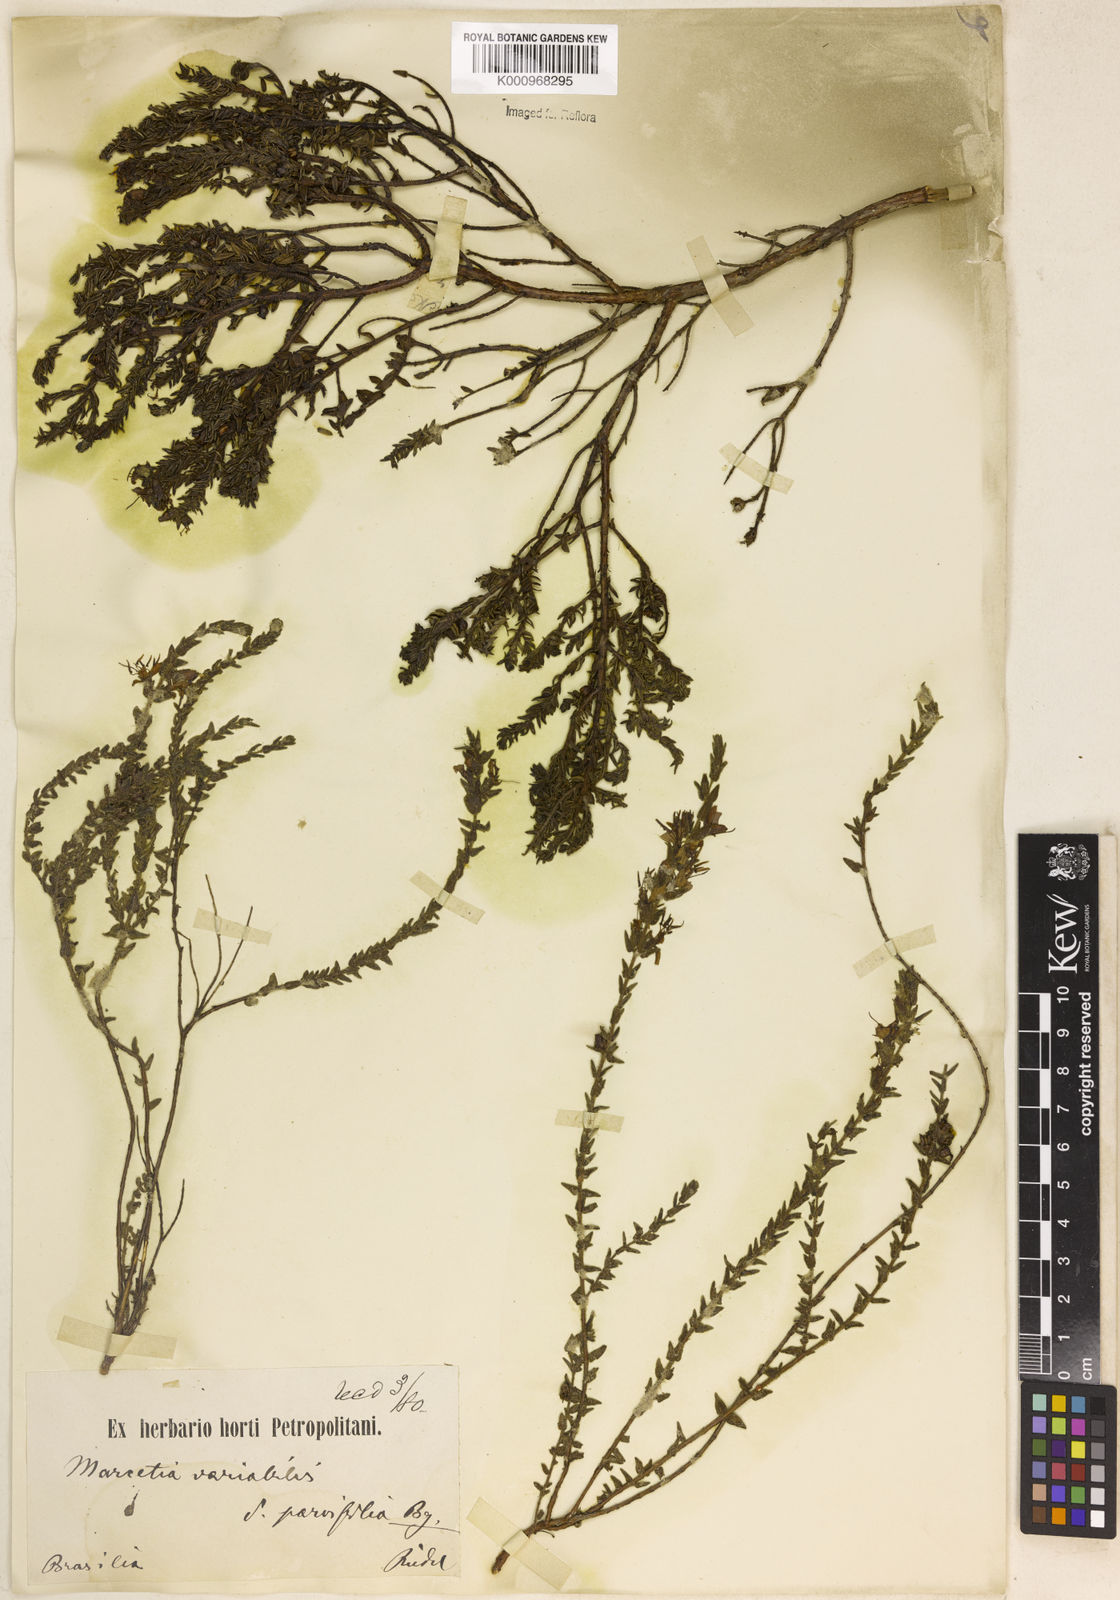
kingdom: Plantae
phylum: Tracheophyta
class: Magnoliopsida
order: Myrtales
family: Melastomataceae
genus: Marcetia
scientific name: Marcetia taxifolia
